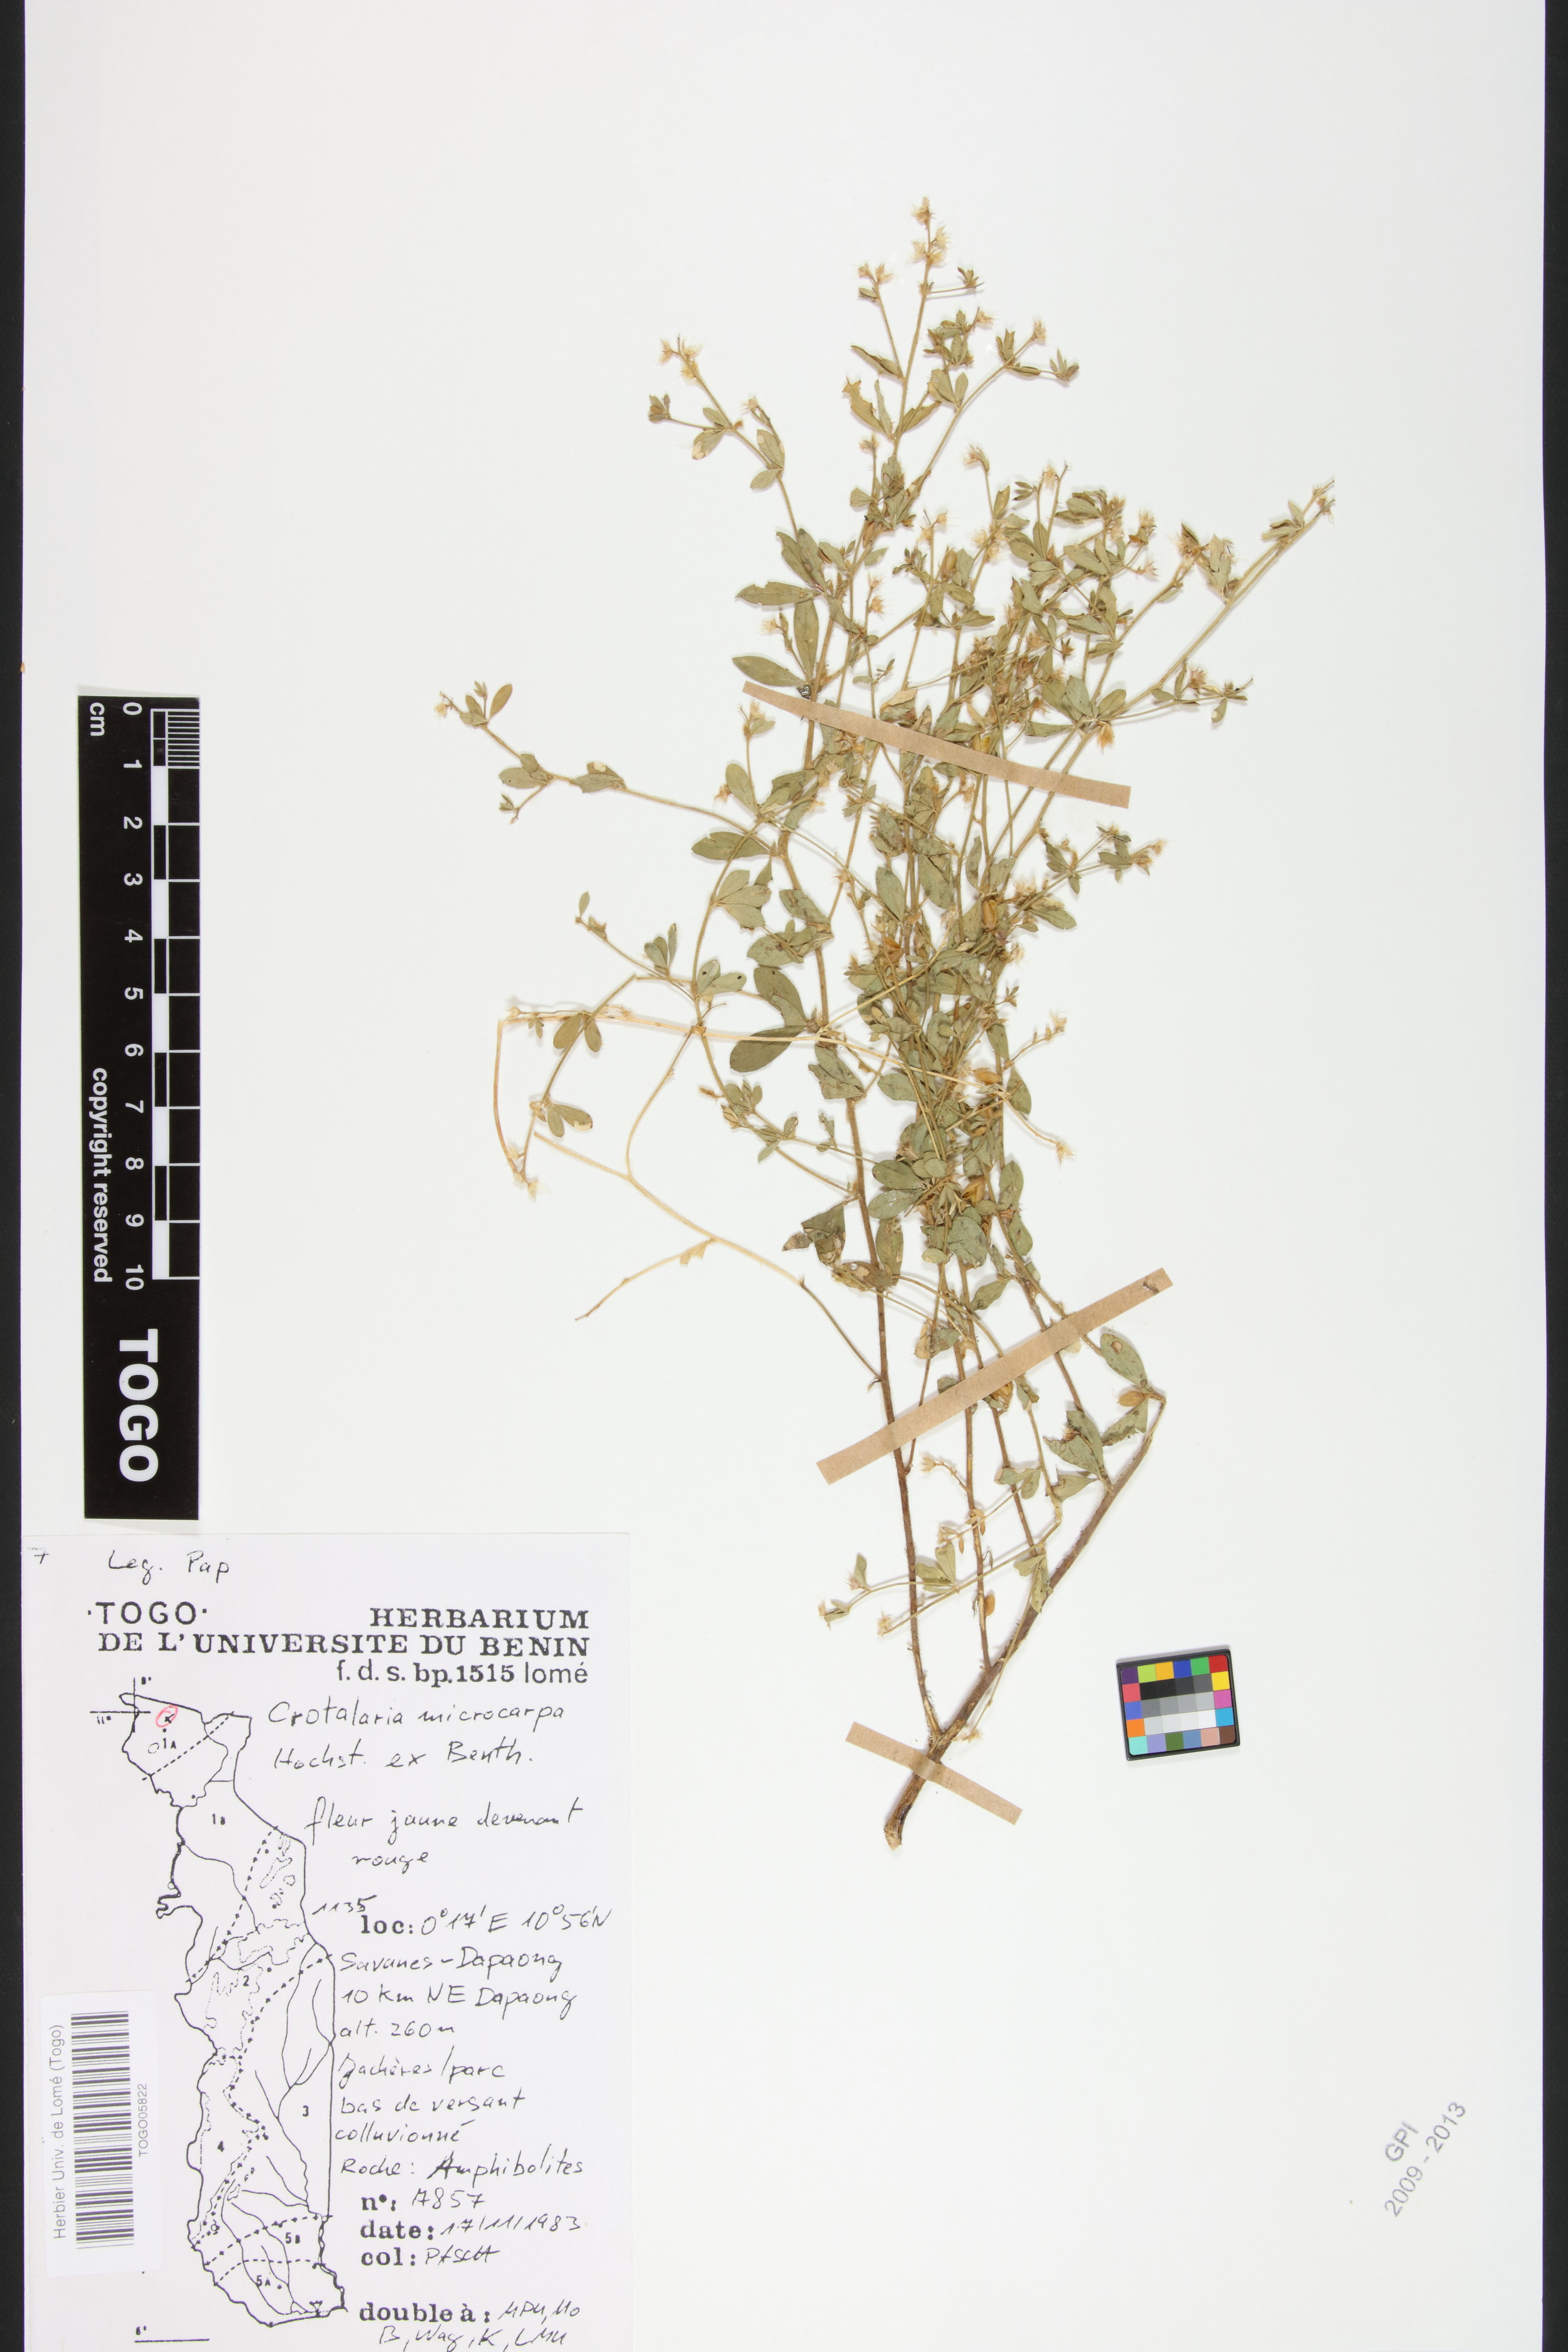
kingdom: Plantae
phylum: Tracheophyta
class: Magnoliopsida
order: Fabales
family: Fabaceae
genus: Crotalaria
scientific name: Crotalaria microcarpa
